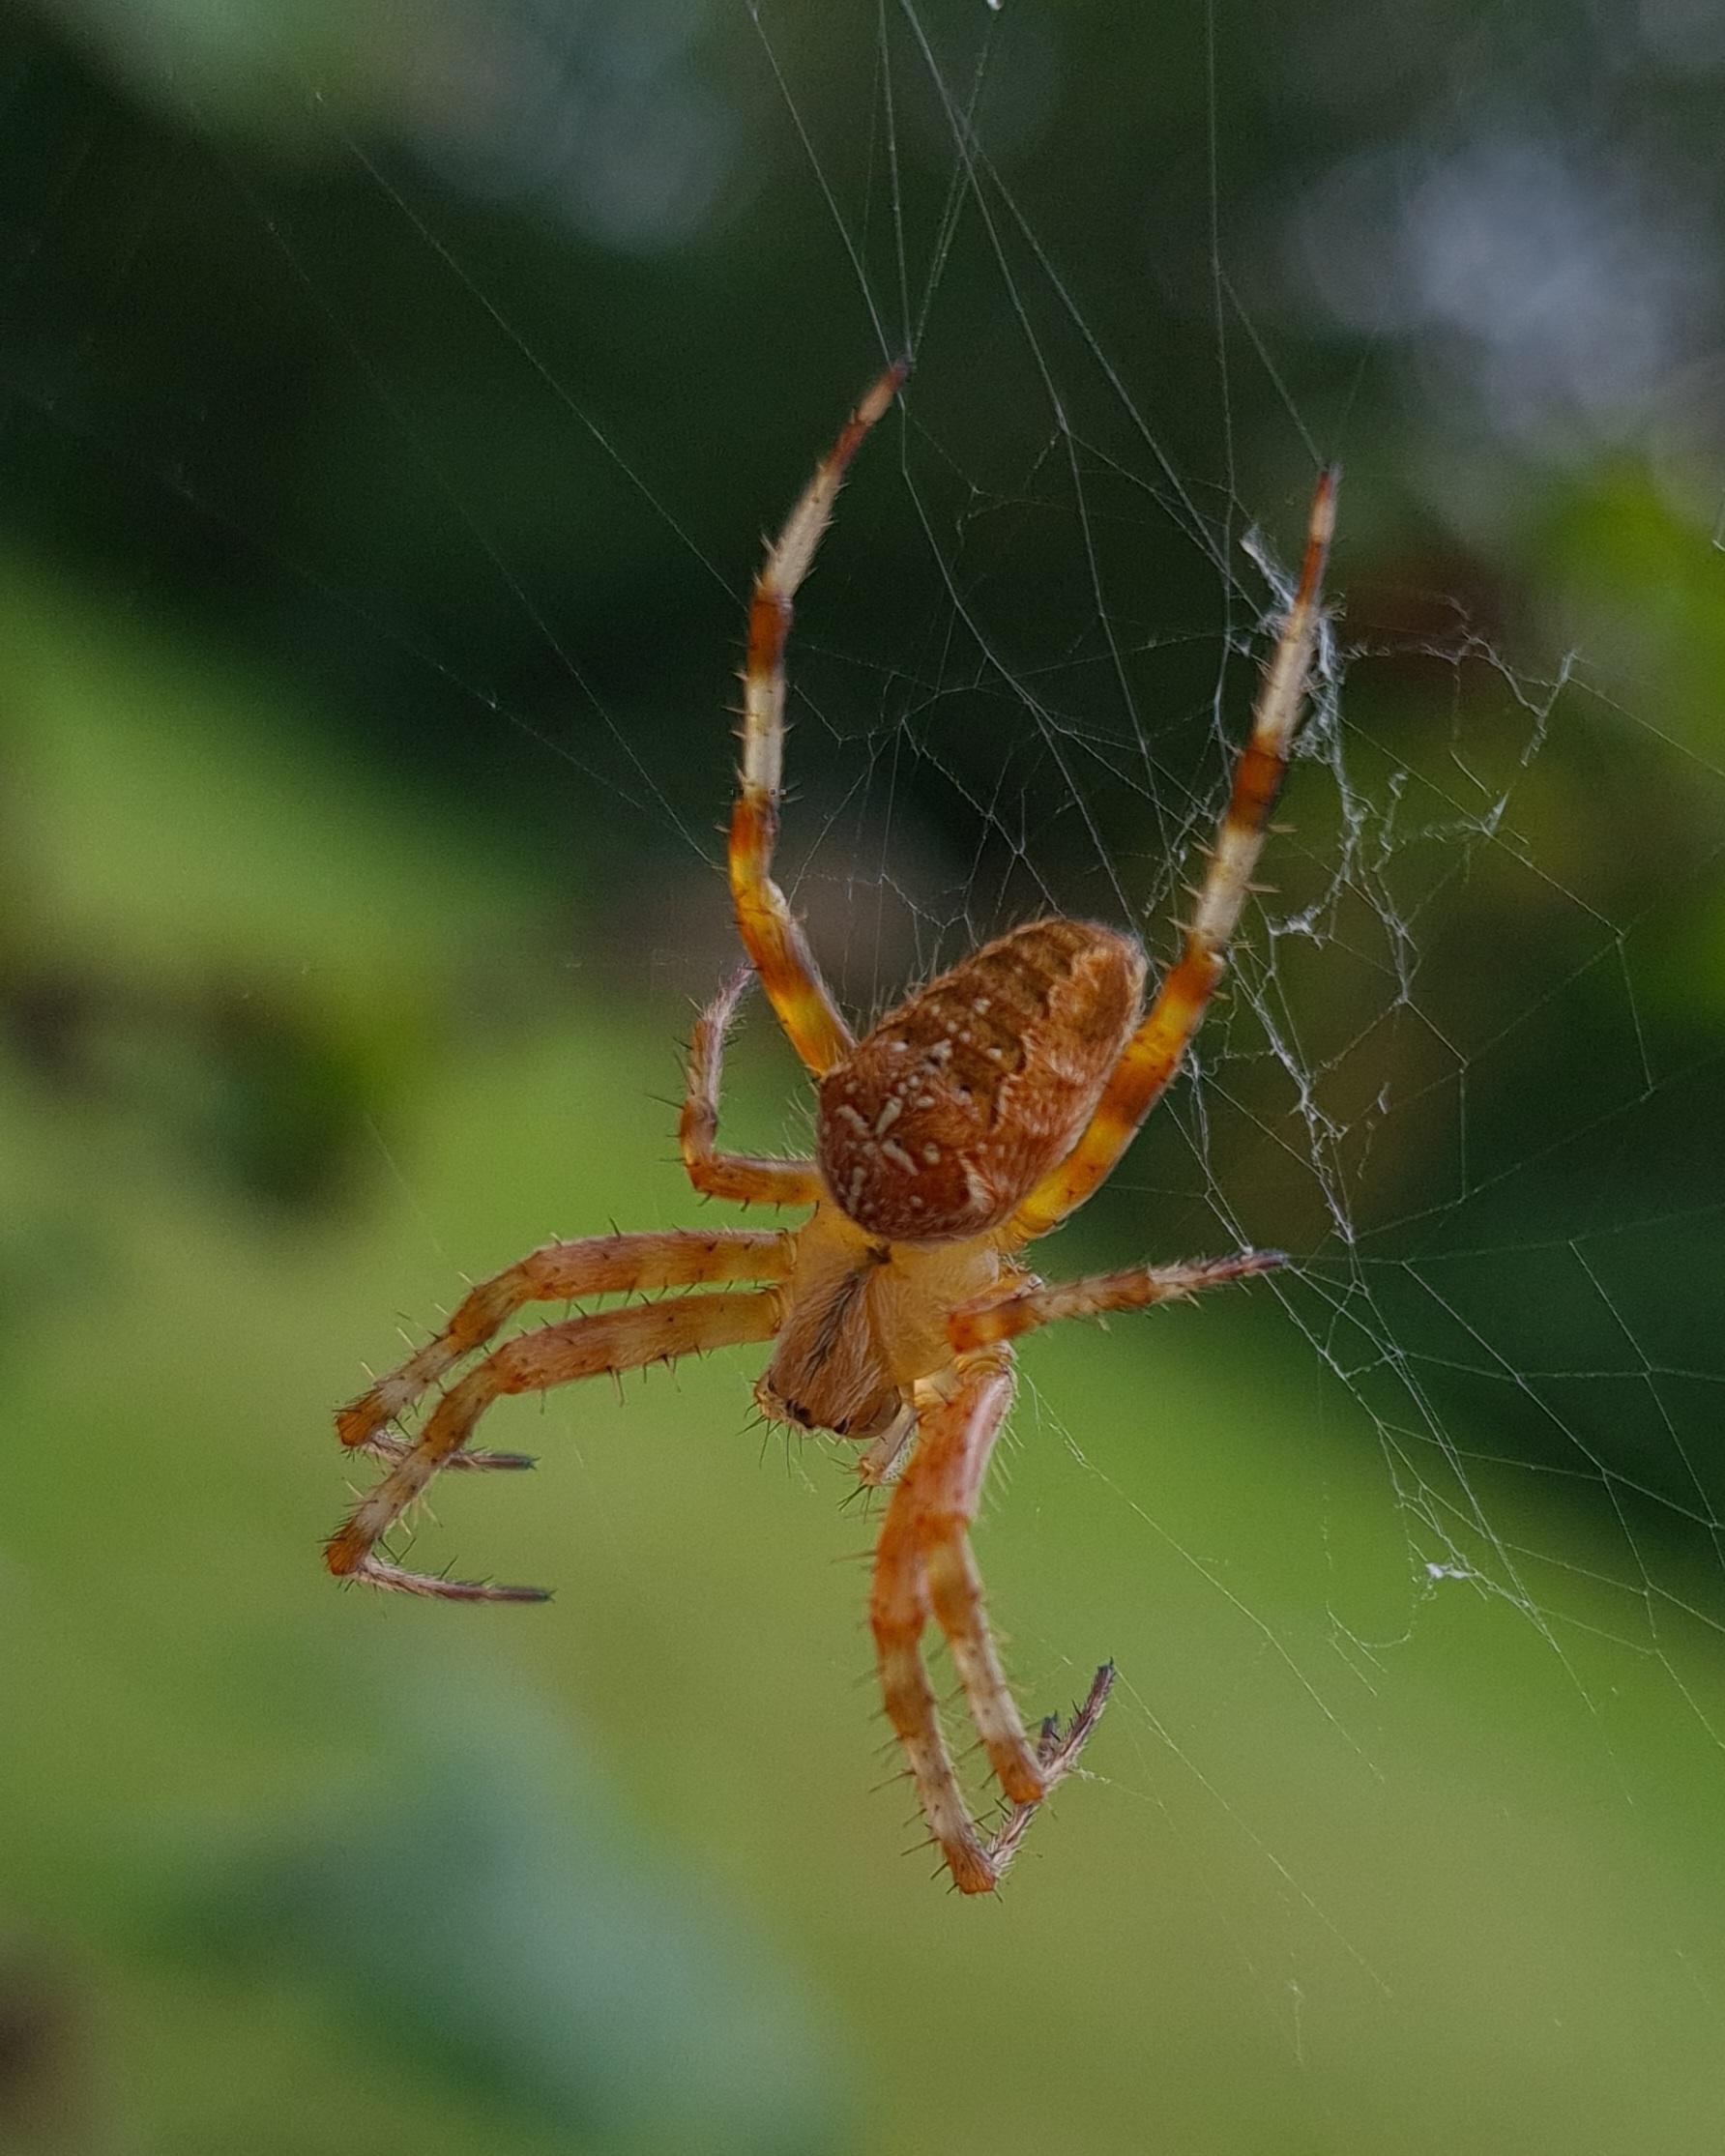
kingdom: Animalia
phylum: Arthropoda
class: Arachnida
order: Araneae
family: Araneidae
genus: Araneus
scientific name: Araneus diadematus
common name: Korsedderkop
